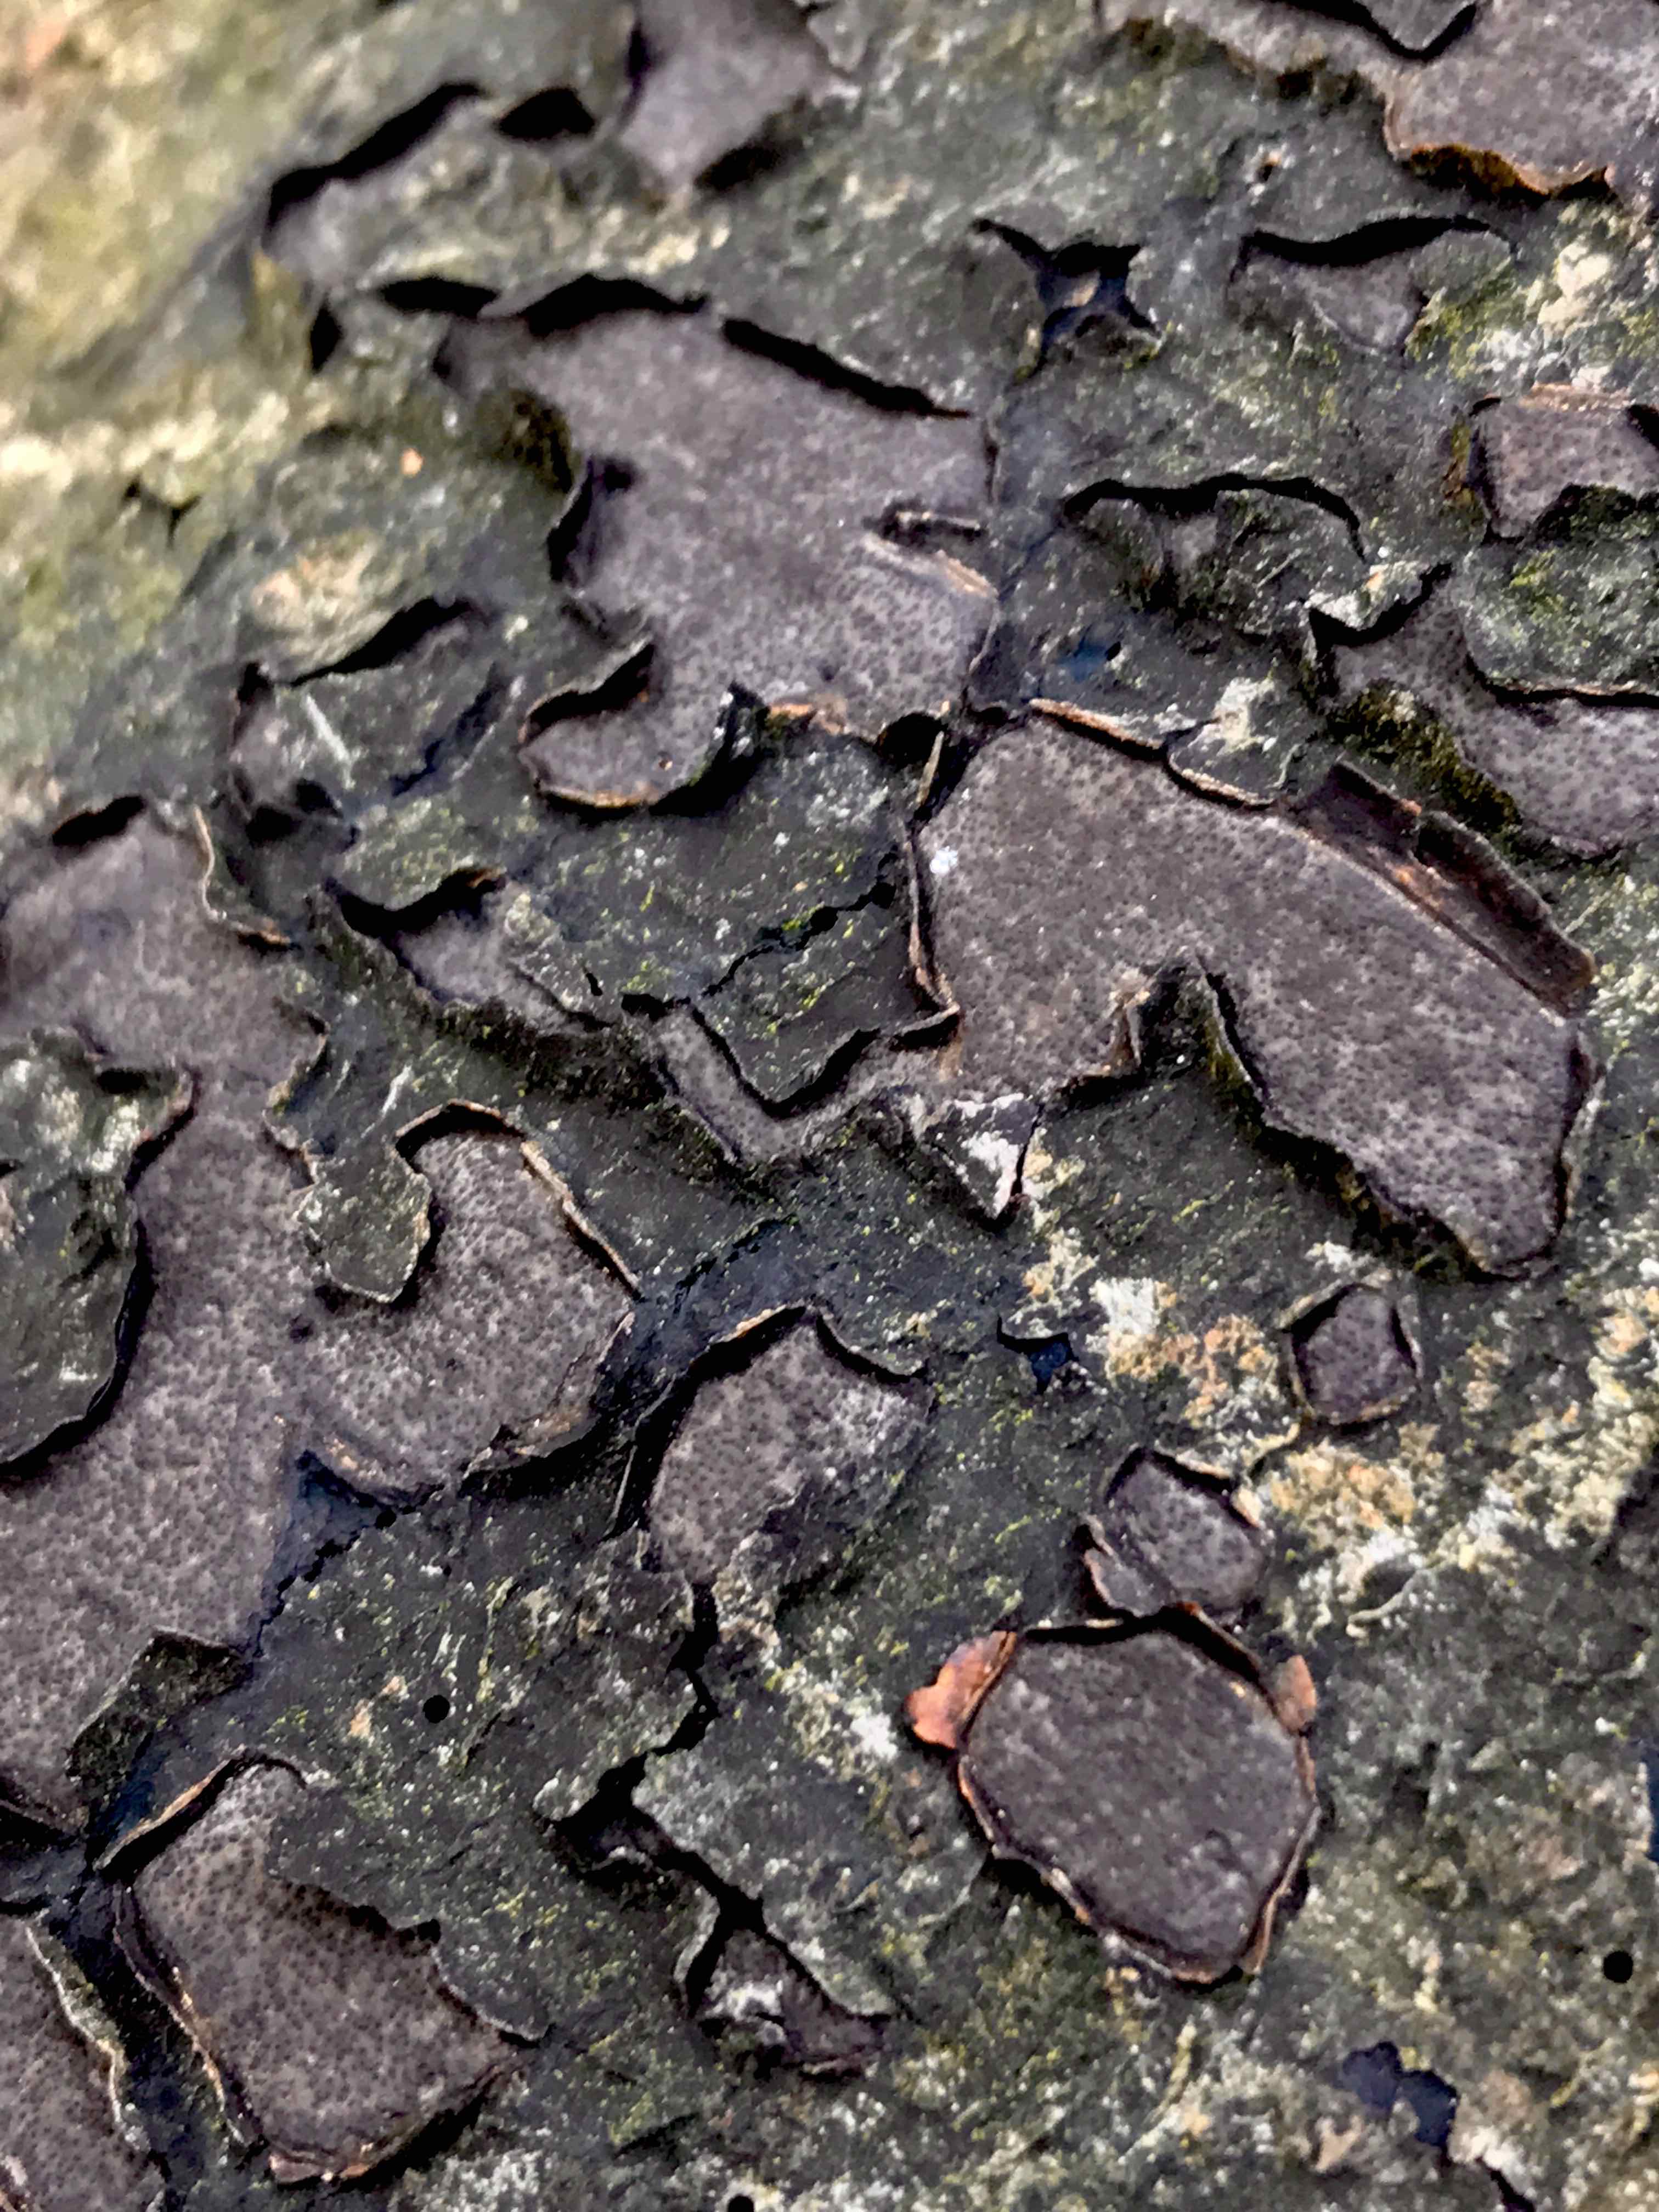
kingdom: Fungi
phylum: Ascomycota
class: Sordariomycetes
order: Xylariales
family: Graphostromataceae
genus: Biscogniauxia
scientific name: Biscogniauxia nummularia
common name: bøge-kulskive
